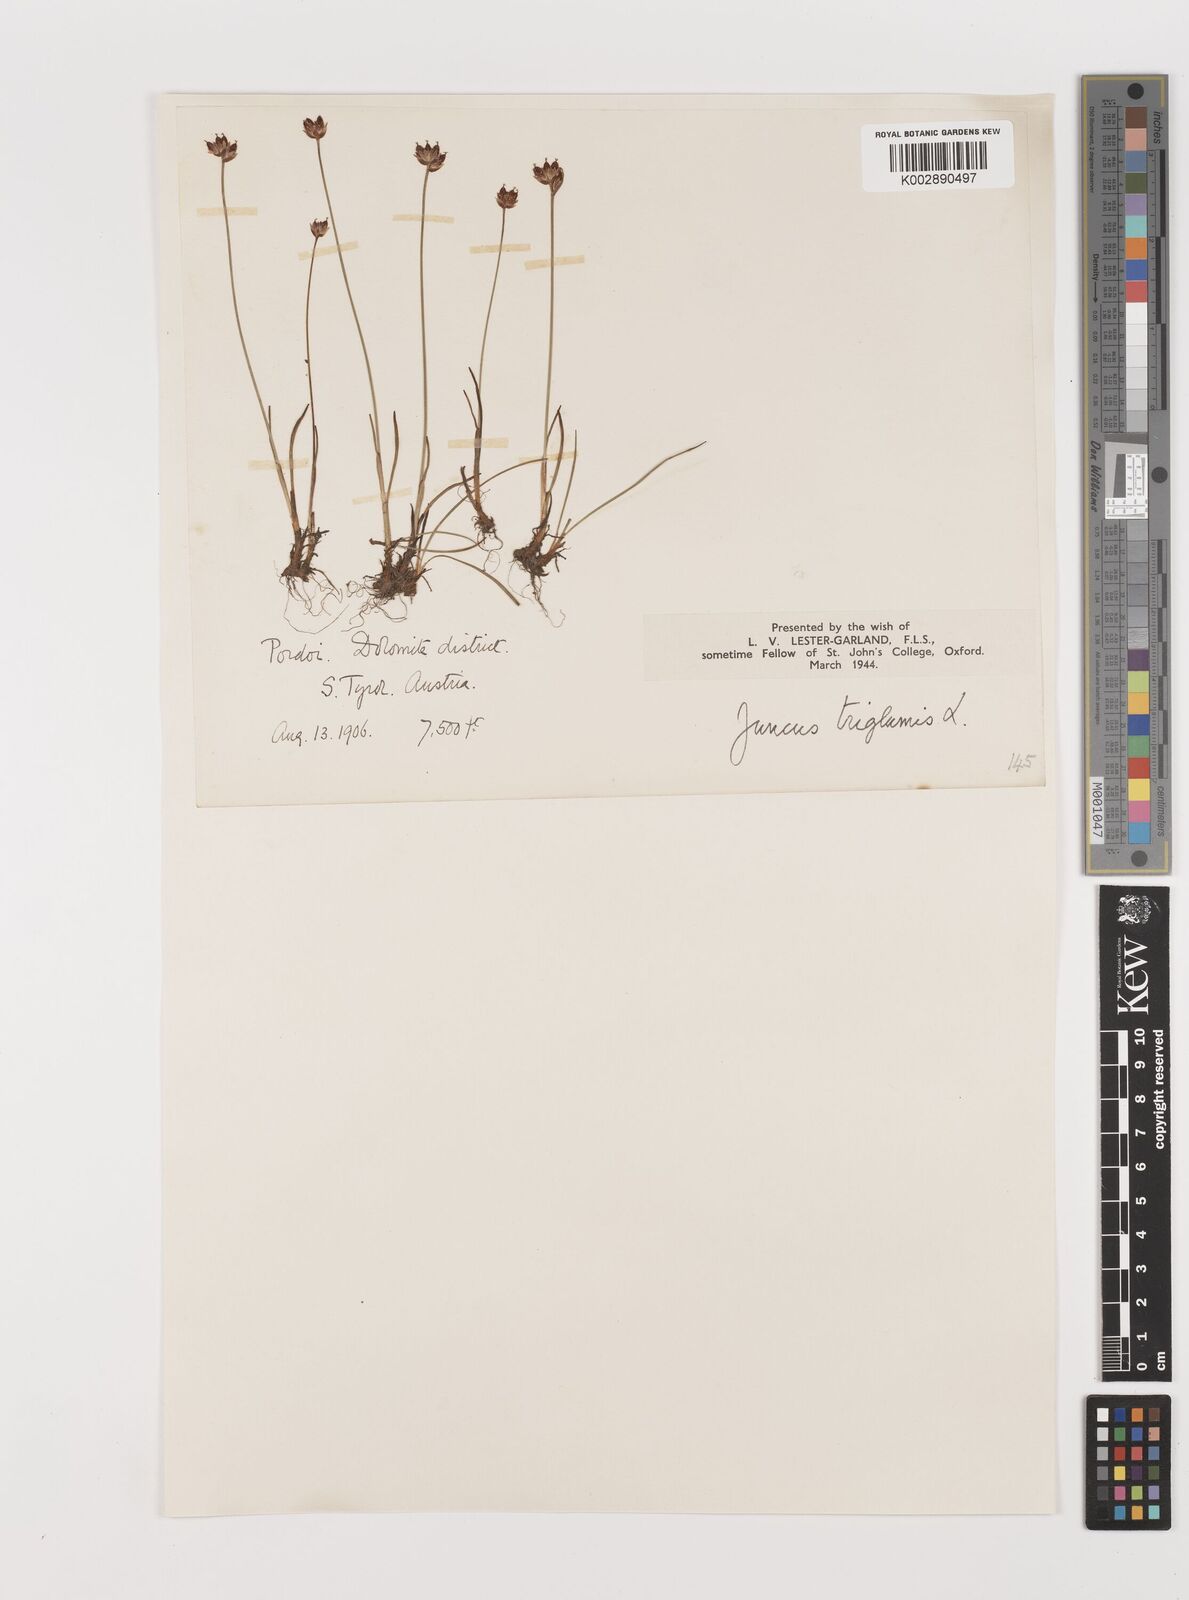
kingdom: Plantae
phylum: Tracheophyta
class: Liliopsida
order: Poales
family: Juncaceae
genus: Juncus
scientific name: Juncus triglumis
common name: Three-flowered rush
